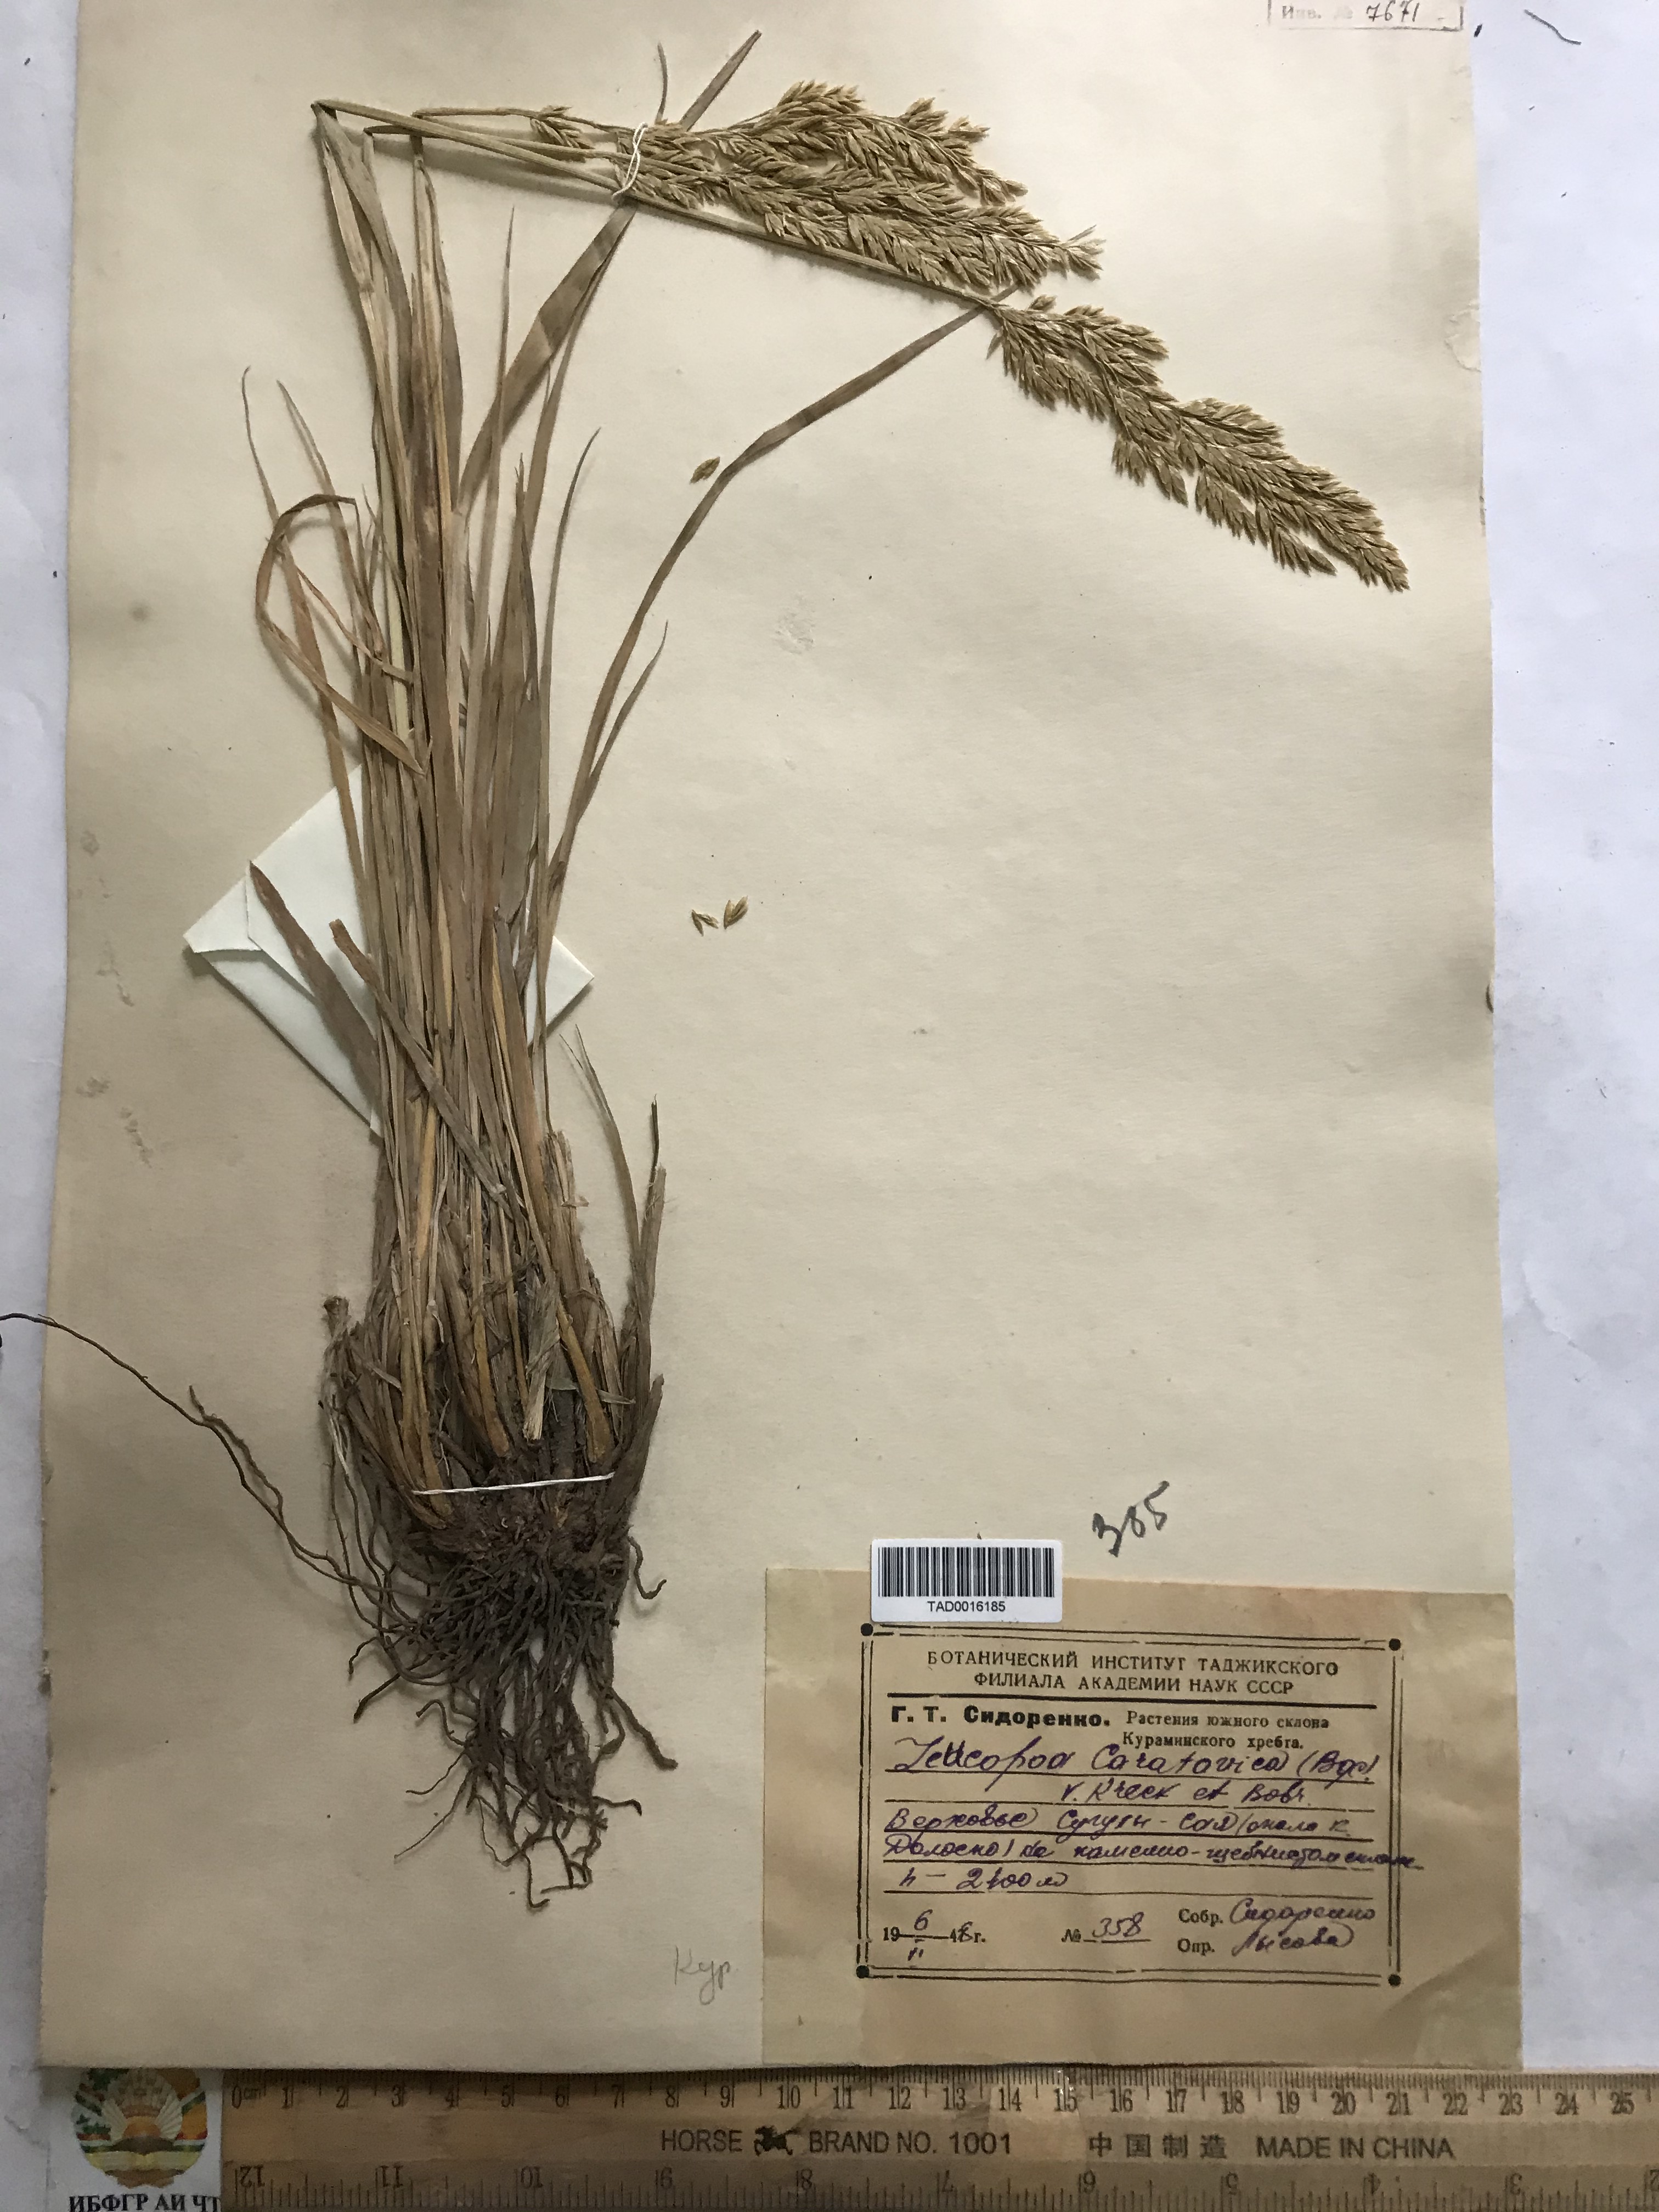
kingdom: Plantae
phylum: Tracheophyta
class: Liliopsida
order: Poales
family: Poaceae
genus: Festuca
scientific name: Festuca karatavica
